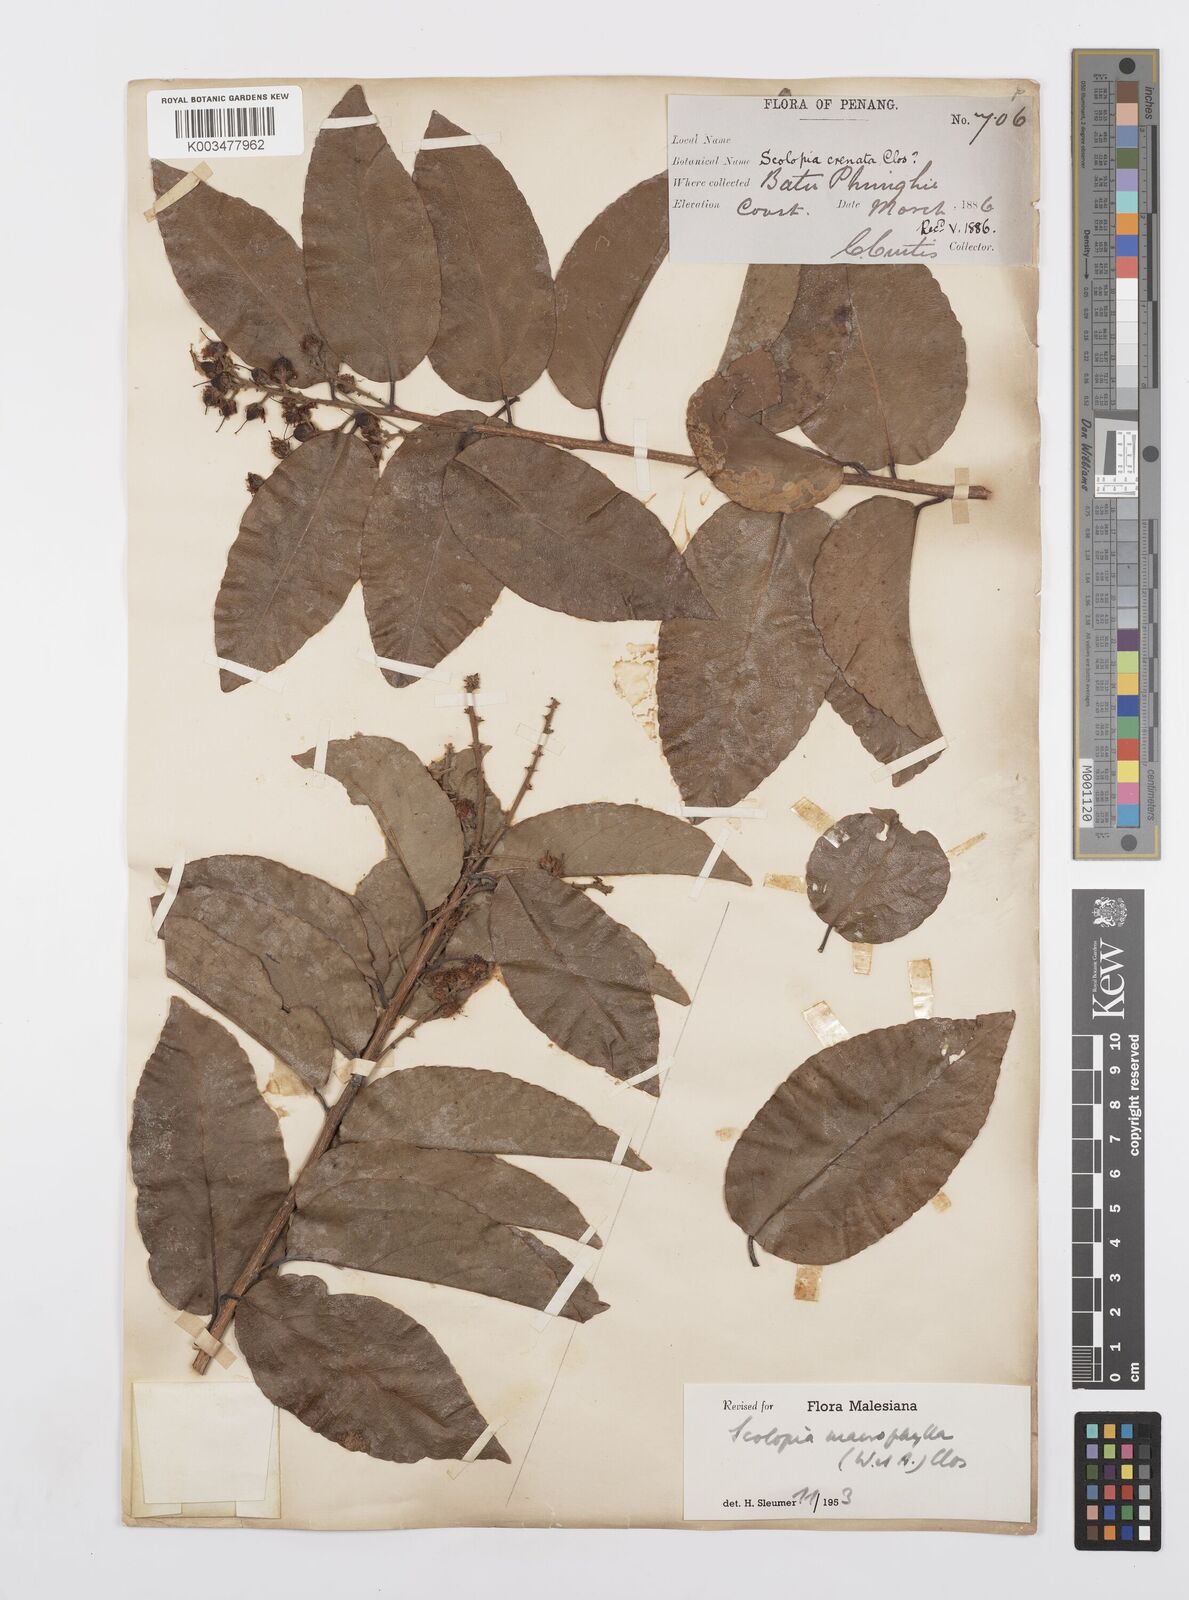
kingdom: Plantae
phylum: Tracheophyta
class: Magnoliopsida
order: Malpighiales
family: Salicaceae
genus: Scolopia
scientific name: Scolopia macrophylla
